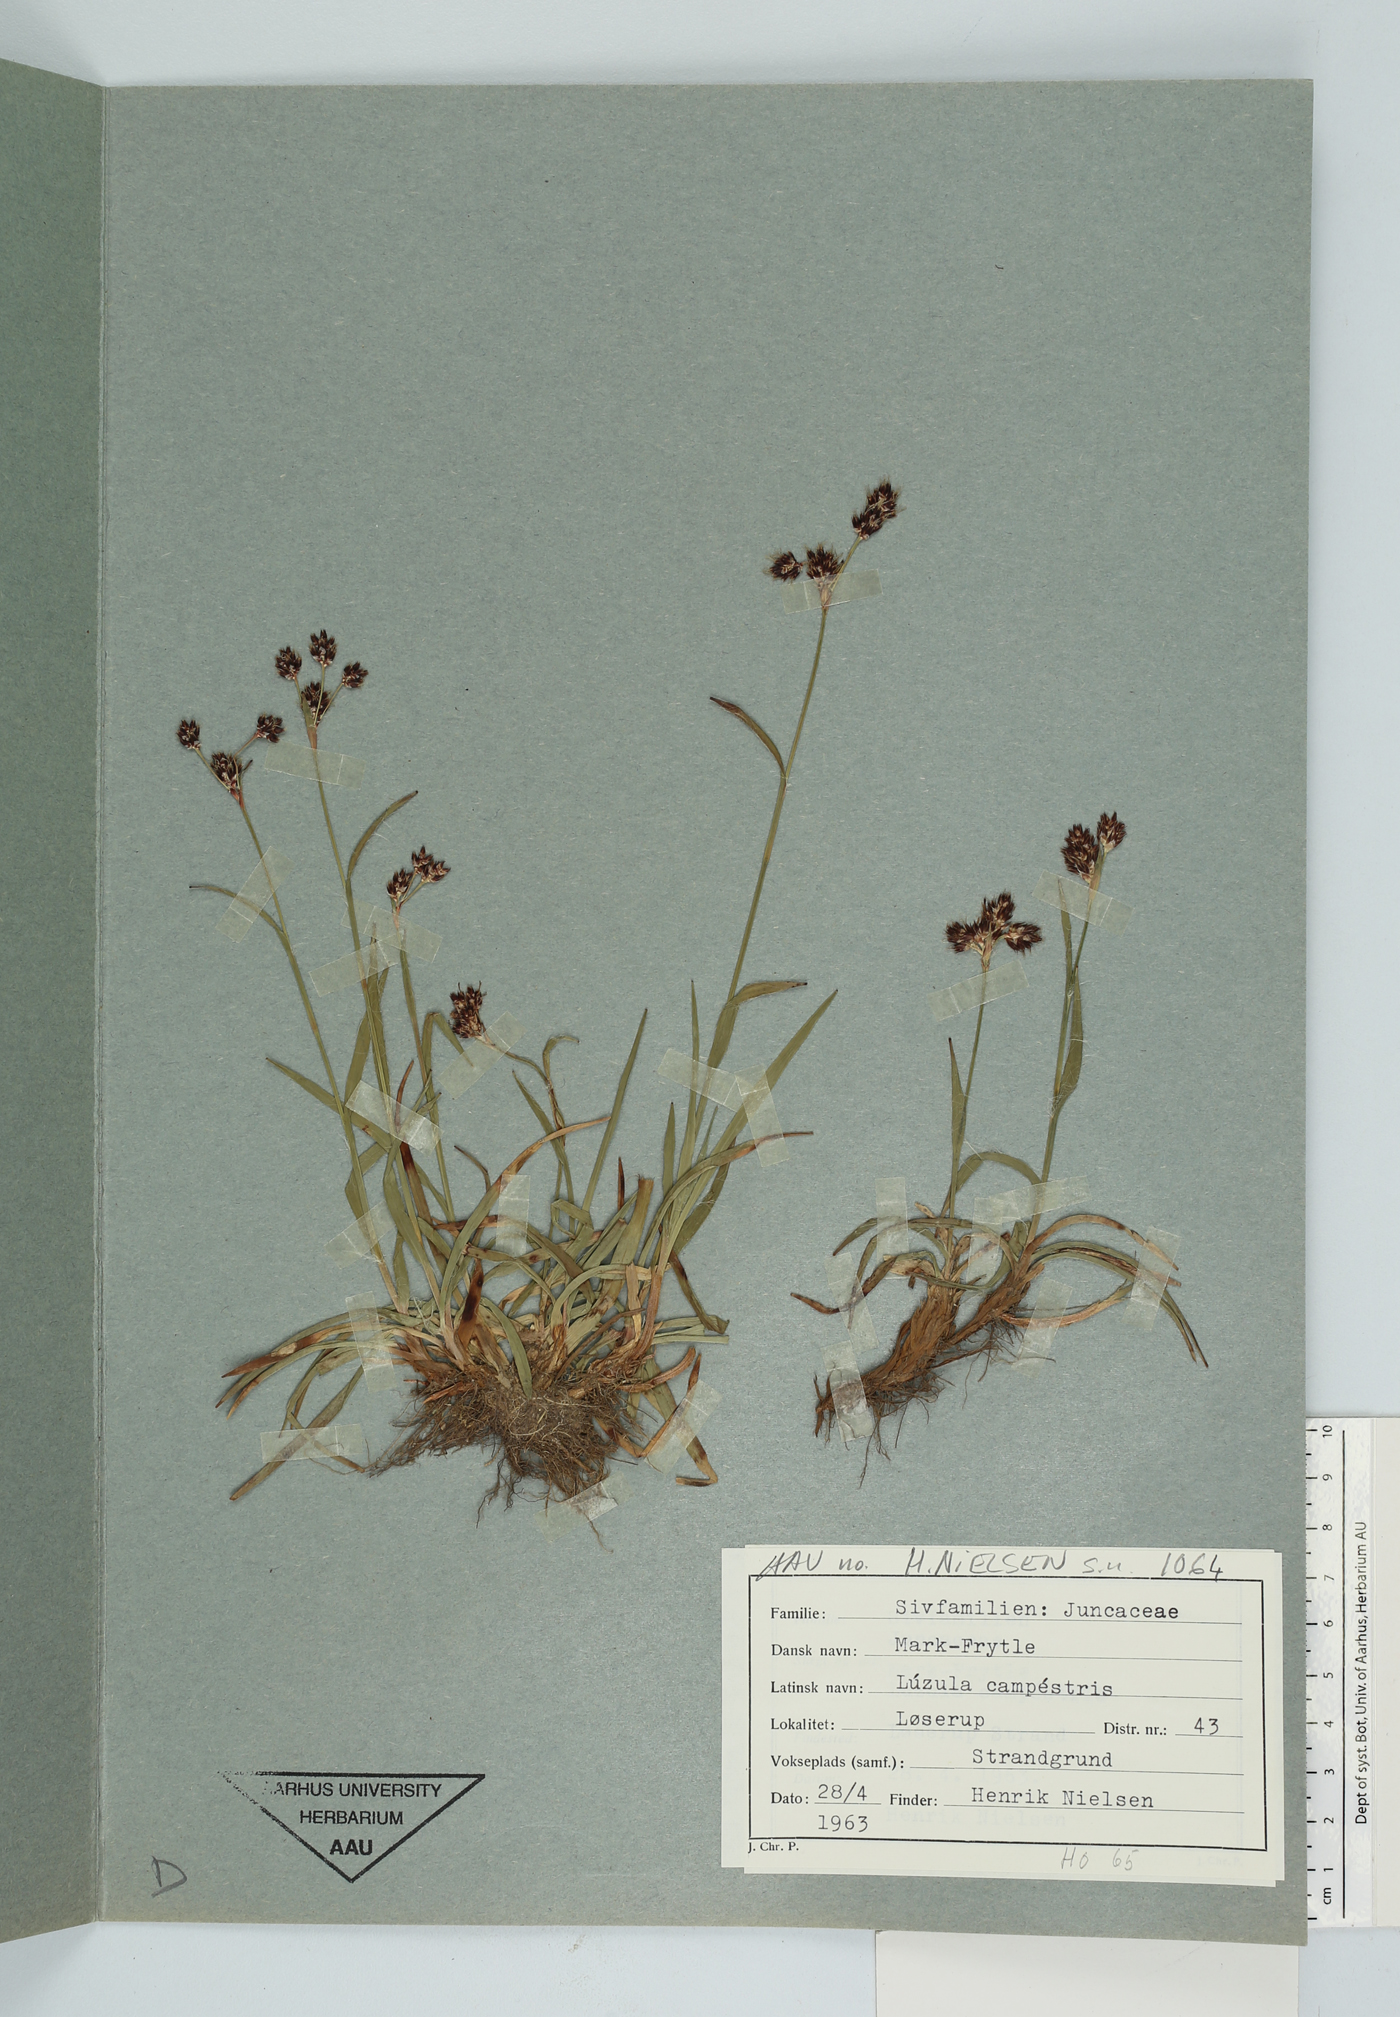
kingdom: Plantae
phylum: Tracheophyta
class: Liliopsida
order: Poales
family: Juncaceae
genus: Luzula
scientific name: Luzula campestris
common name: Field wood-rush
